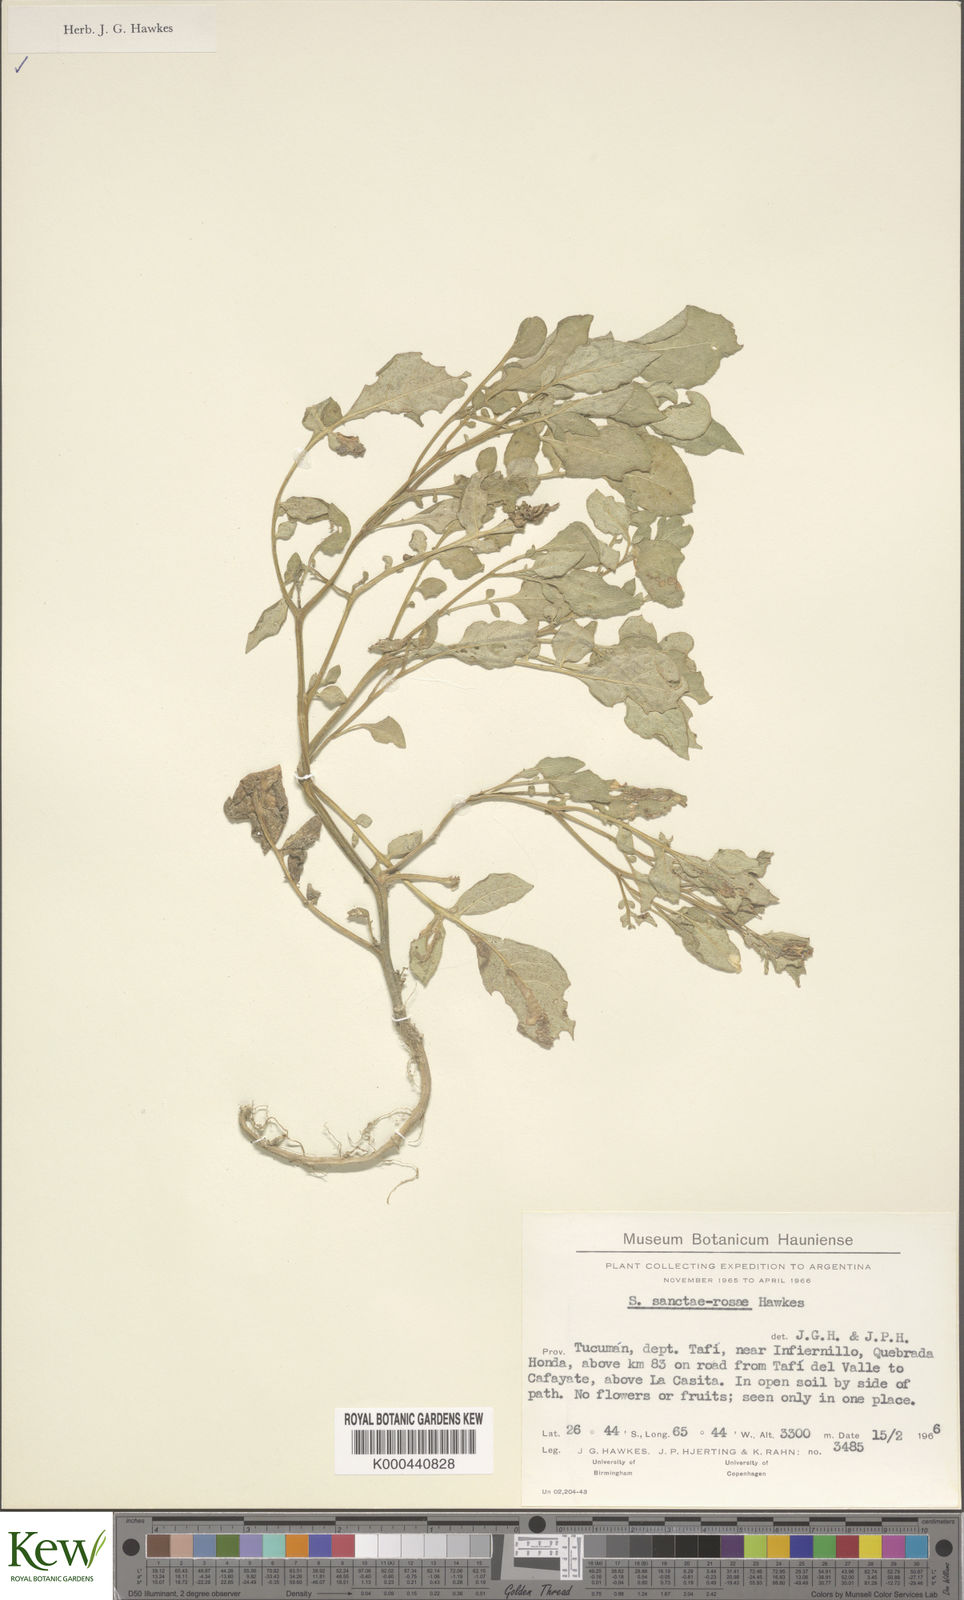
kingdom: Plantae
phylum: Tracheophyta
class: Magnoliopsida
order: Solanales
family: Solanaceae
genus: Solanum
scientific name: Solanum boliviense
